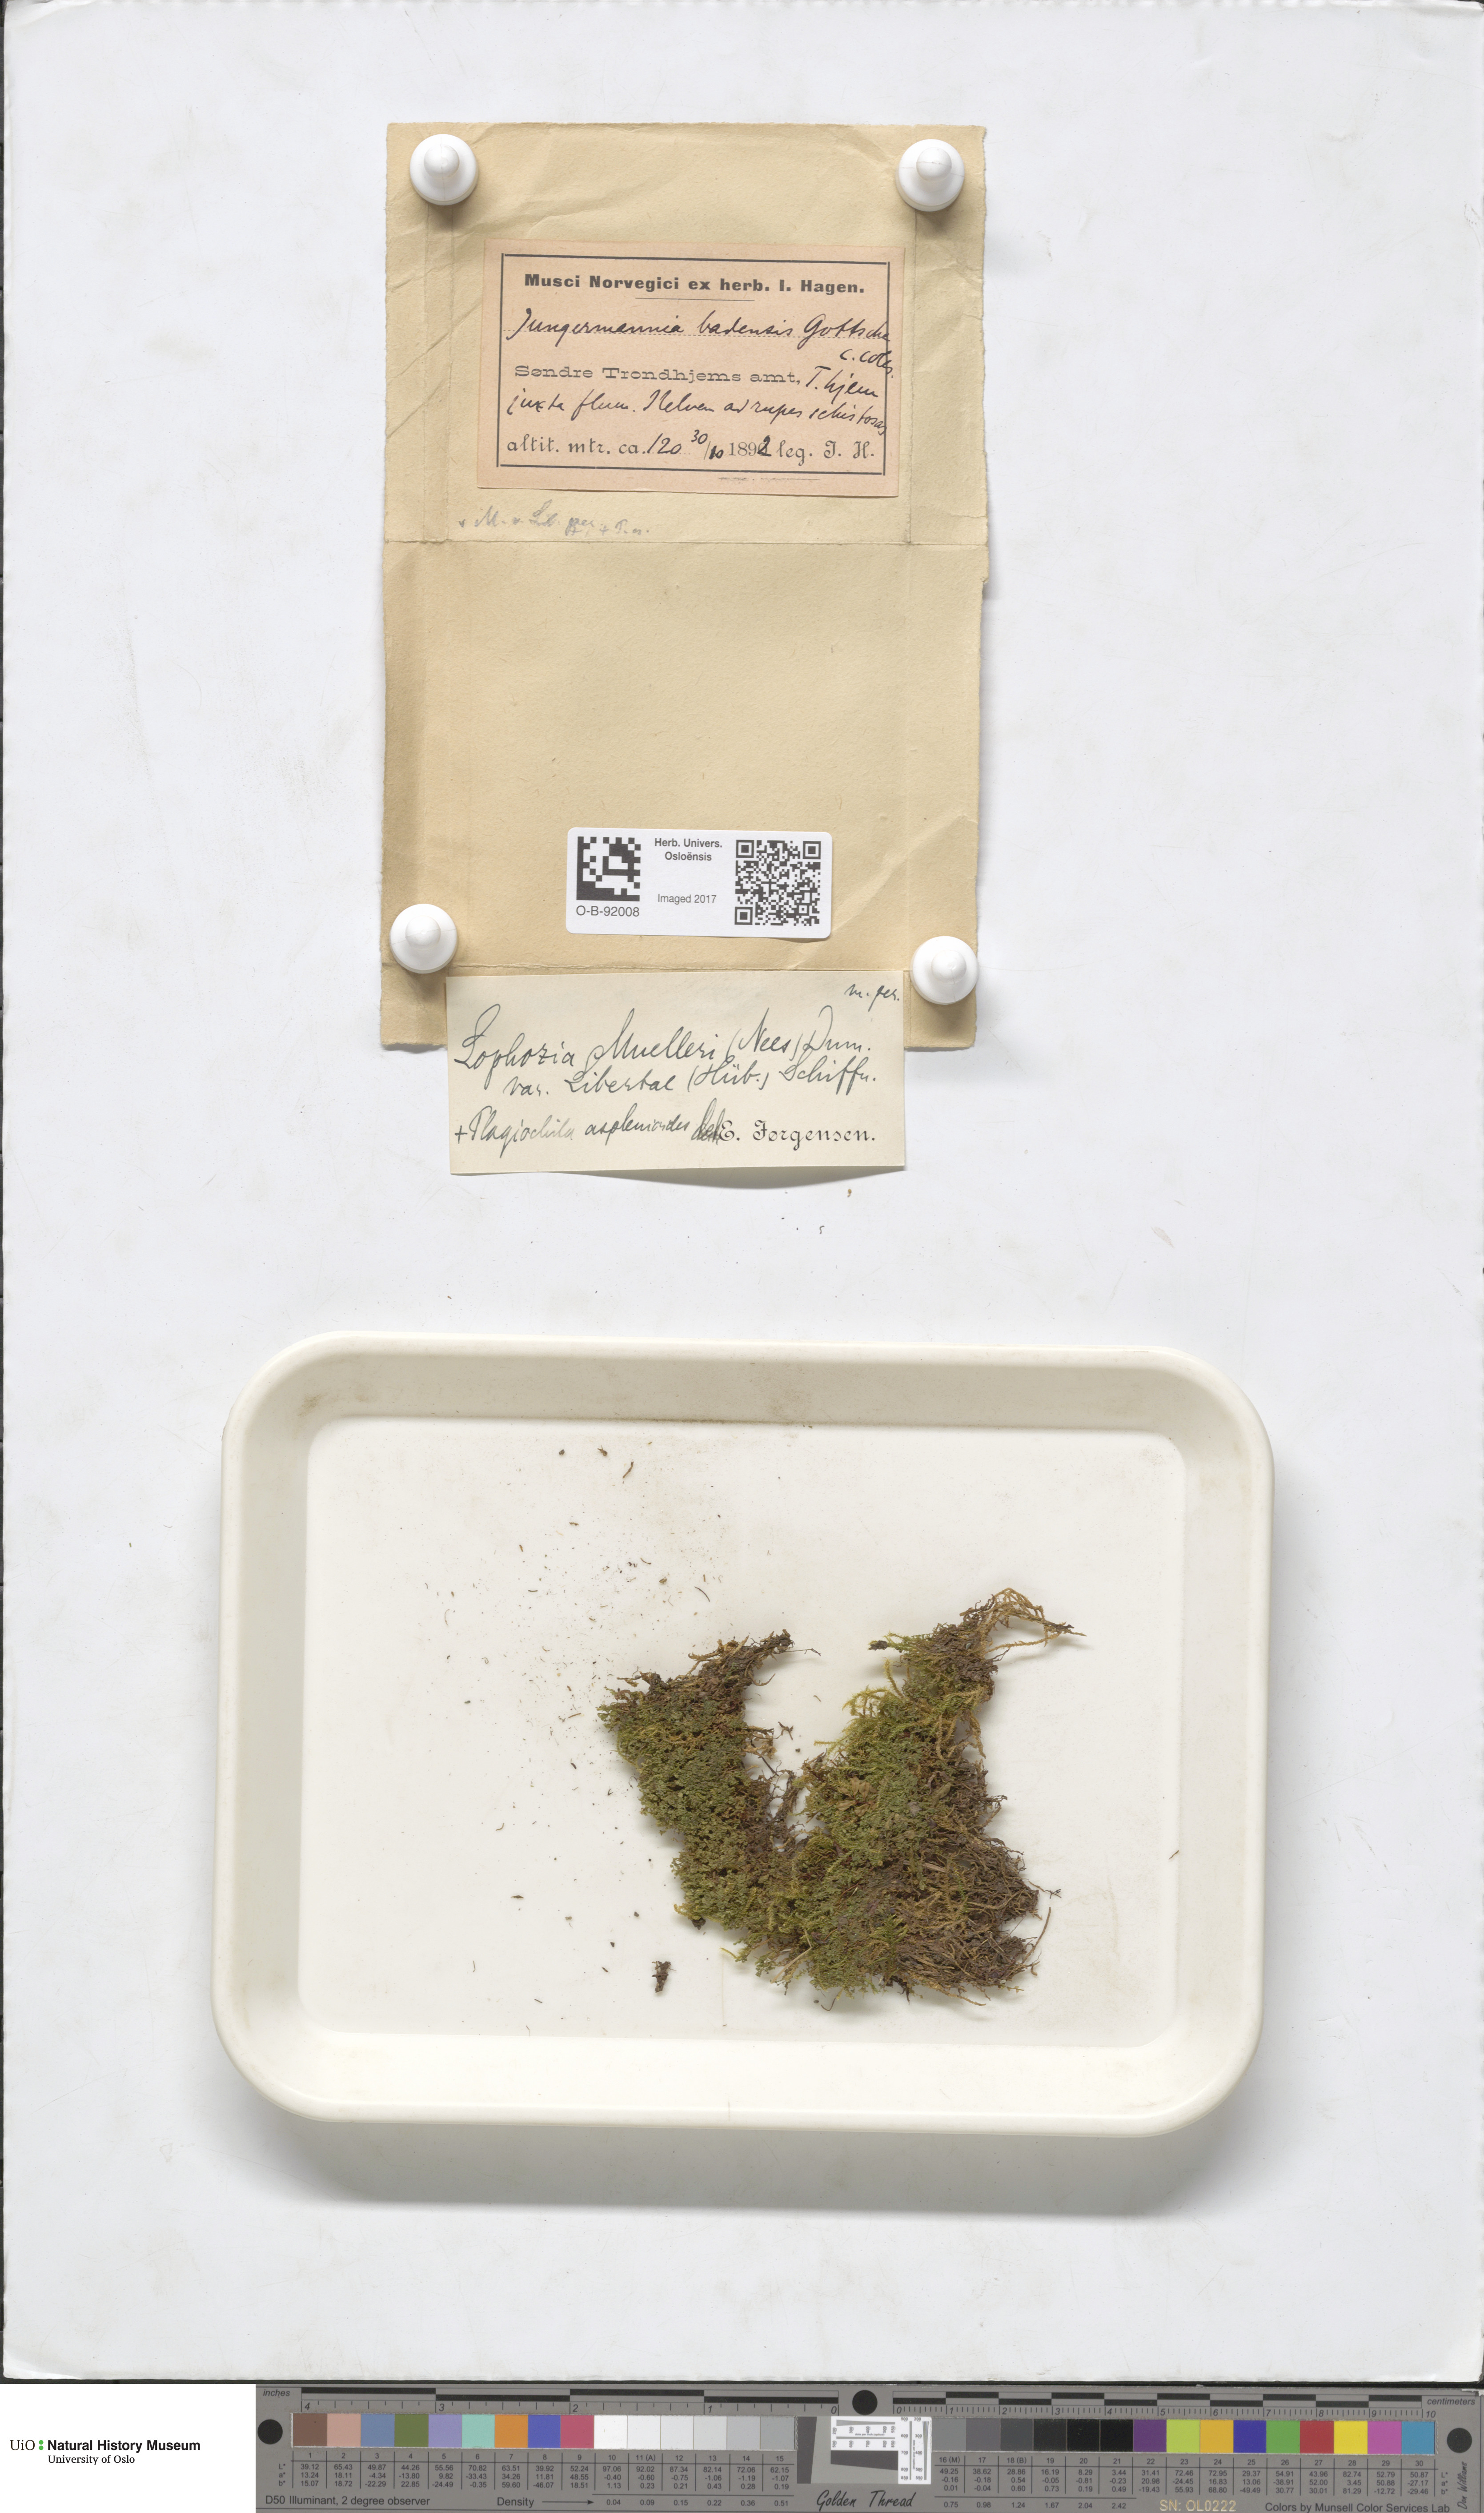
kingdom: Plantae
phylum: Marchantiophyta
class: Jungermanniopsida
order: Jungermanniales
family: Jungermanniaceae
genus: Mesoptychia
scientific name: Mesoptychia collaris
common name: Collared notchwort
